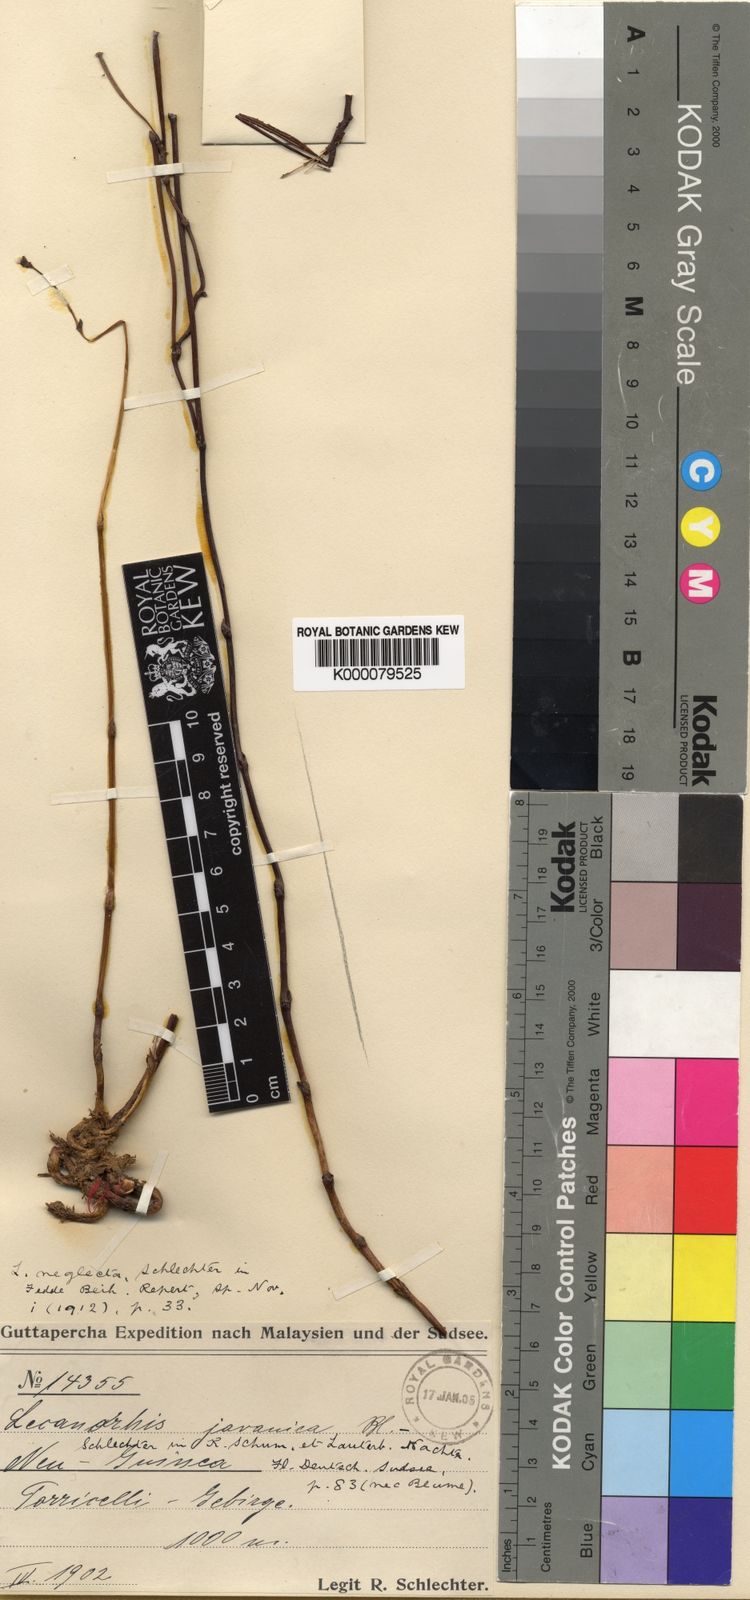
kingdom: Plantae
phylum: Tracheophyta
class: Liliopsida
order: Asparagales
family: Orchidaceae
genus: Lecanorchis
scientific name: Lecanorchis neglecta
